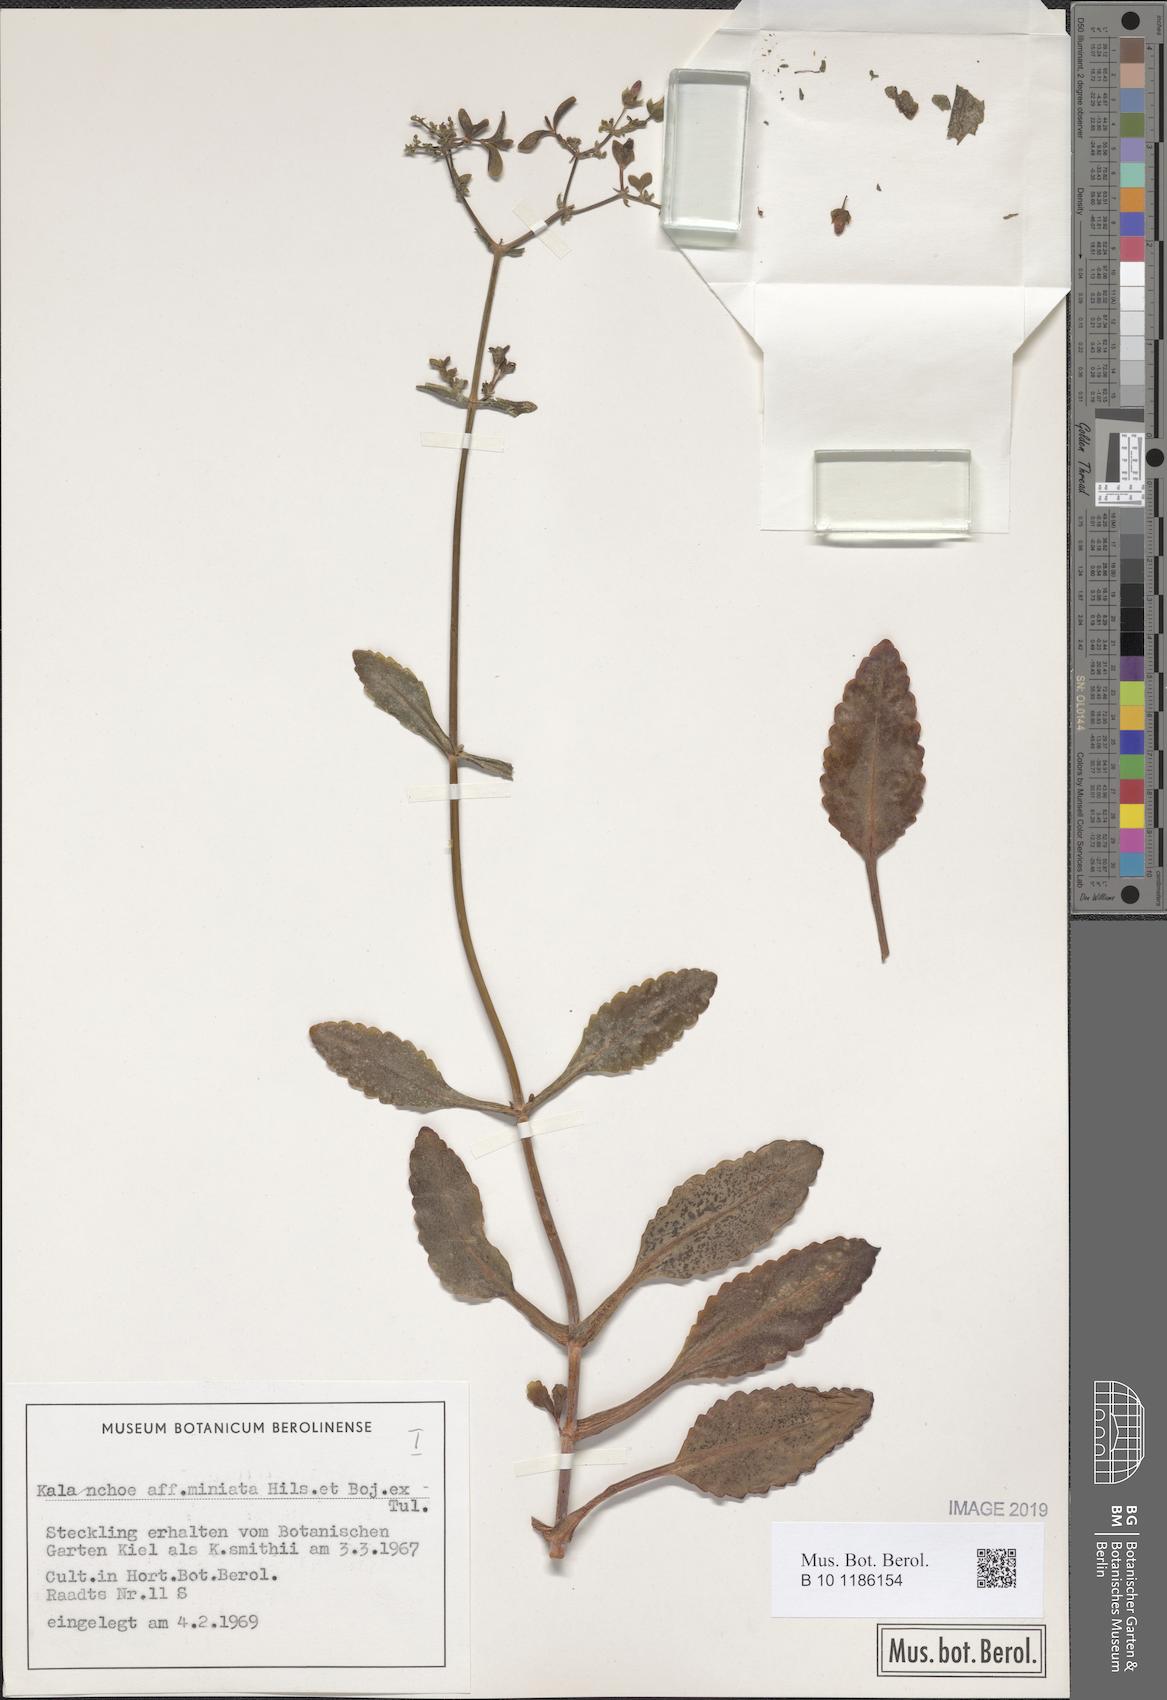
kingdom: Plantae
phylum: Tracheophyta
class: Magnoliopsida
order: Saxifragales
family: Crassulaceae
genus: Kalanchoe
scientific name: Kalanchoe miniata
